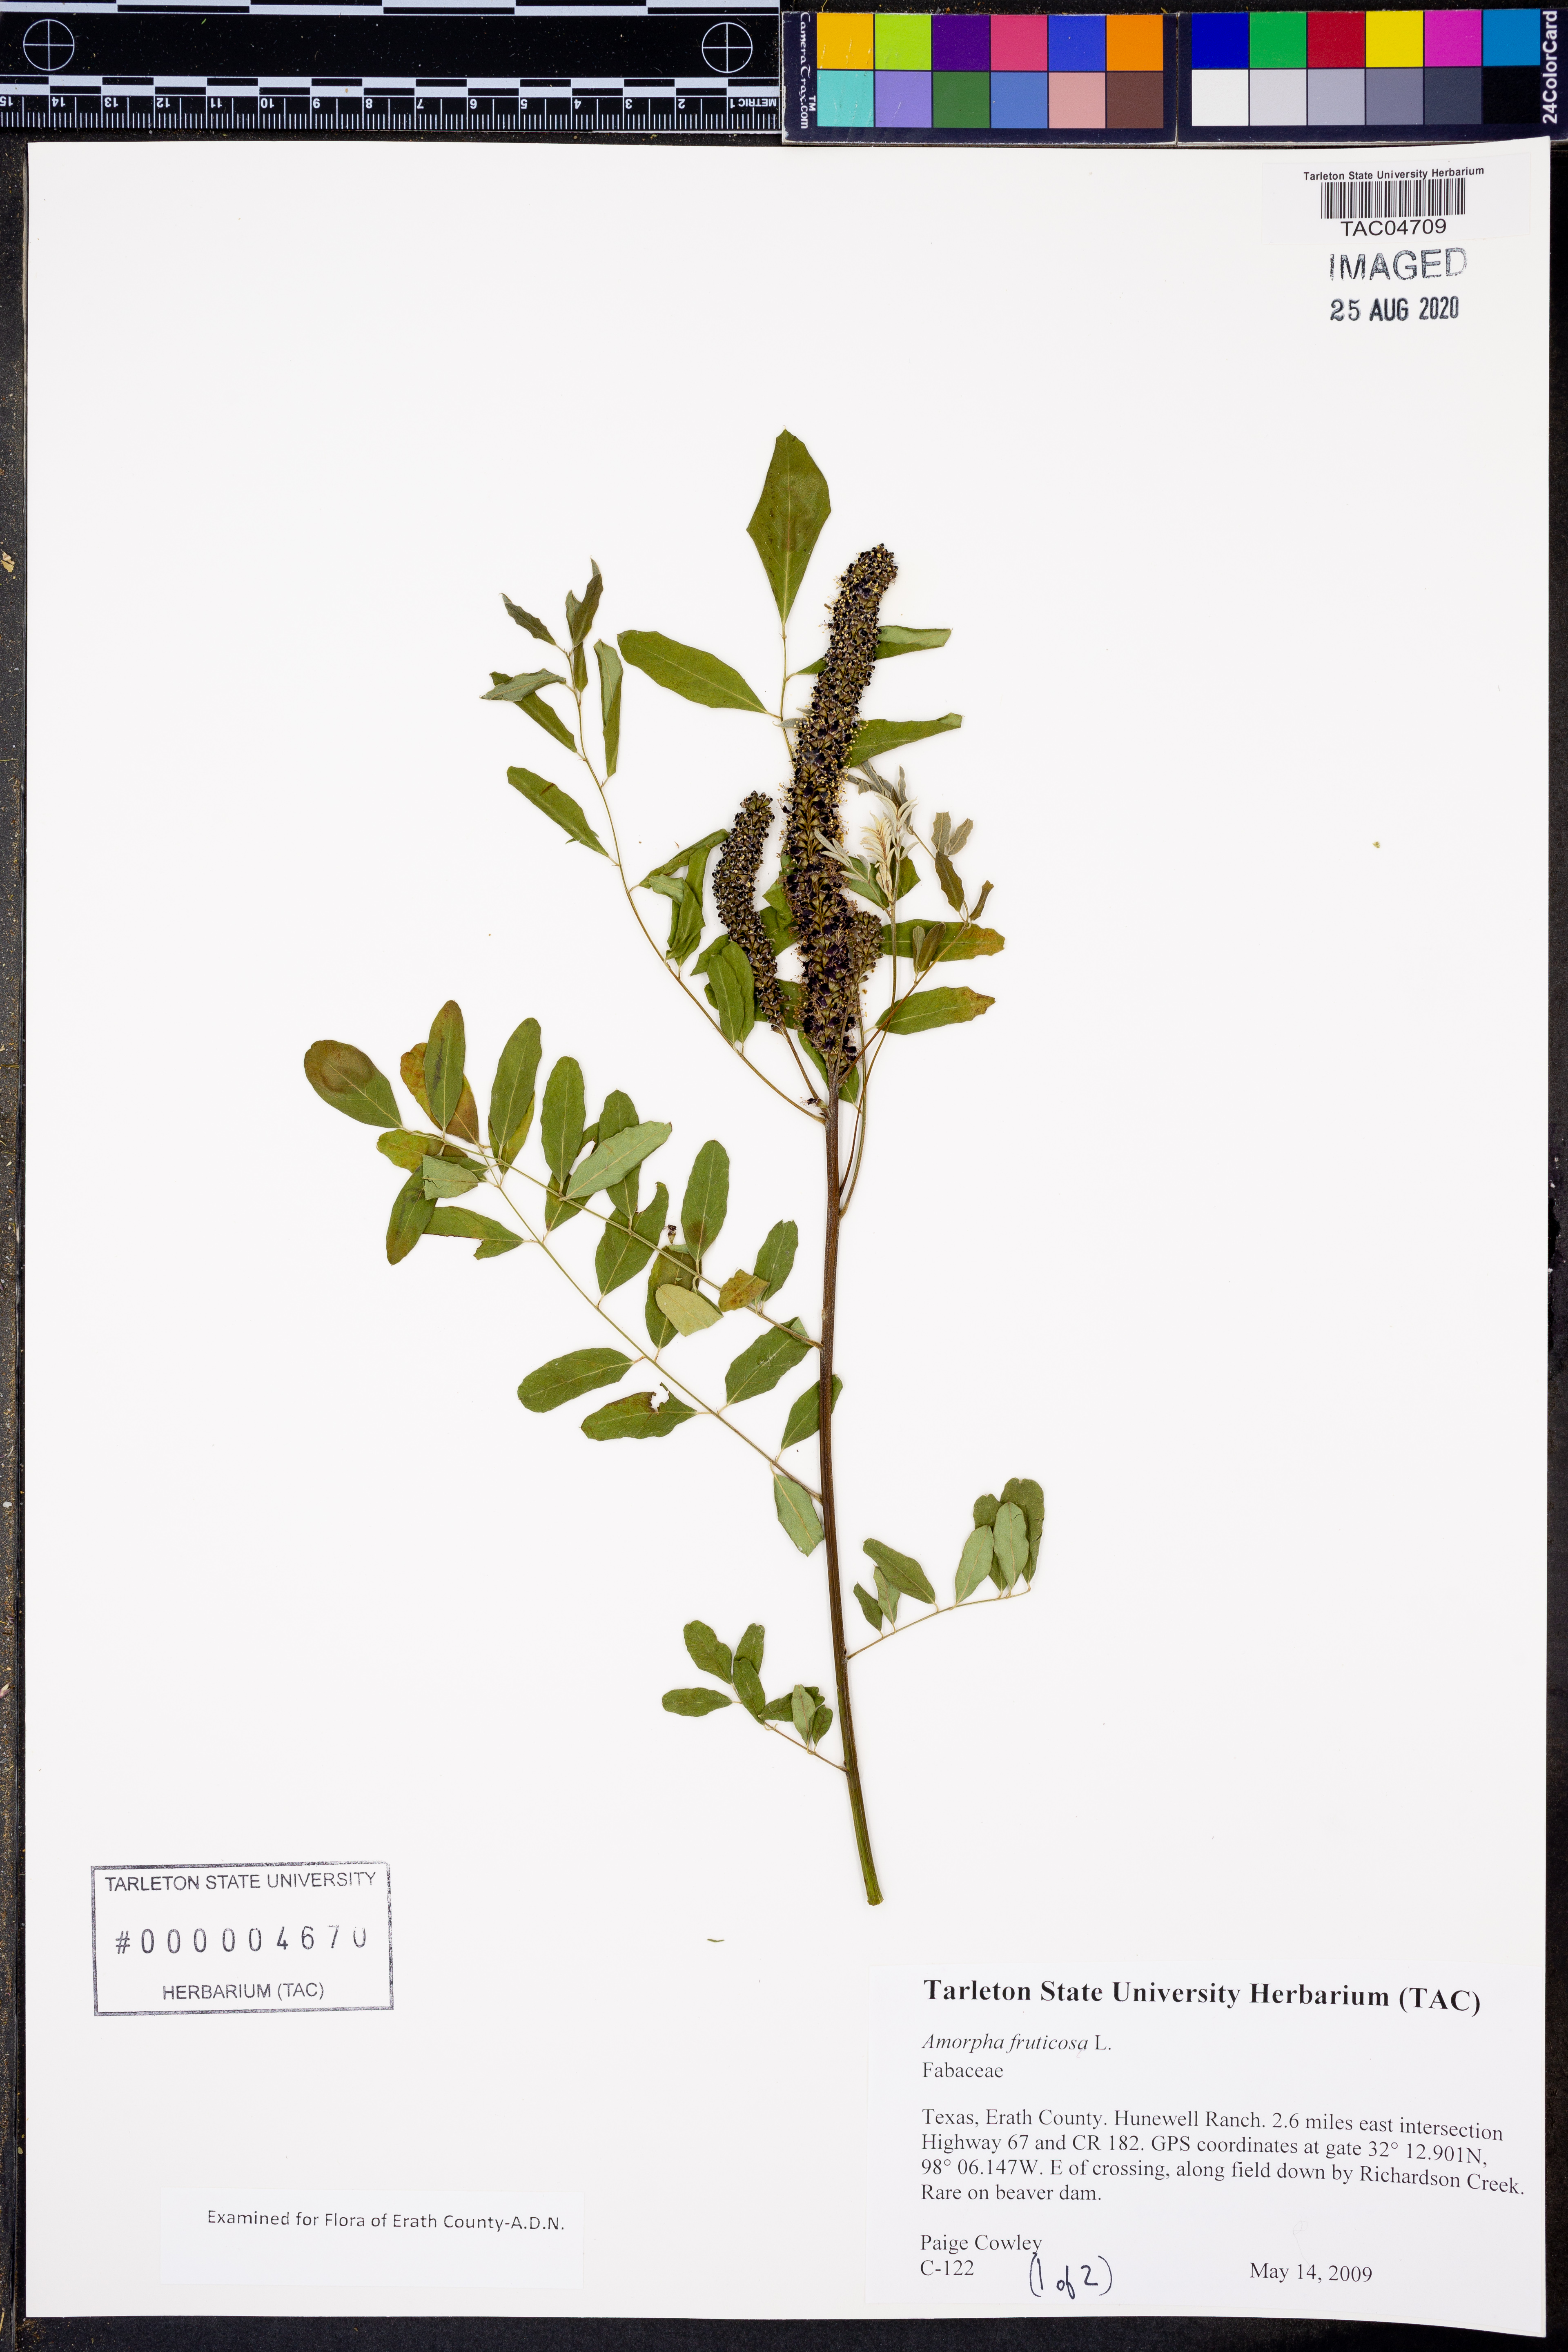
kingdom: Plantae
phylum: Tracheophyta
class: Magnoliopsida
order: Fabales
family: Fabaceae
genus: Amorpha
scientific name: Amorpha fruticosa
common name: False indigo
